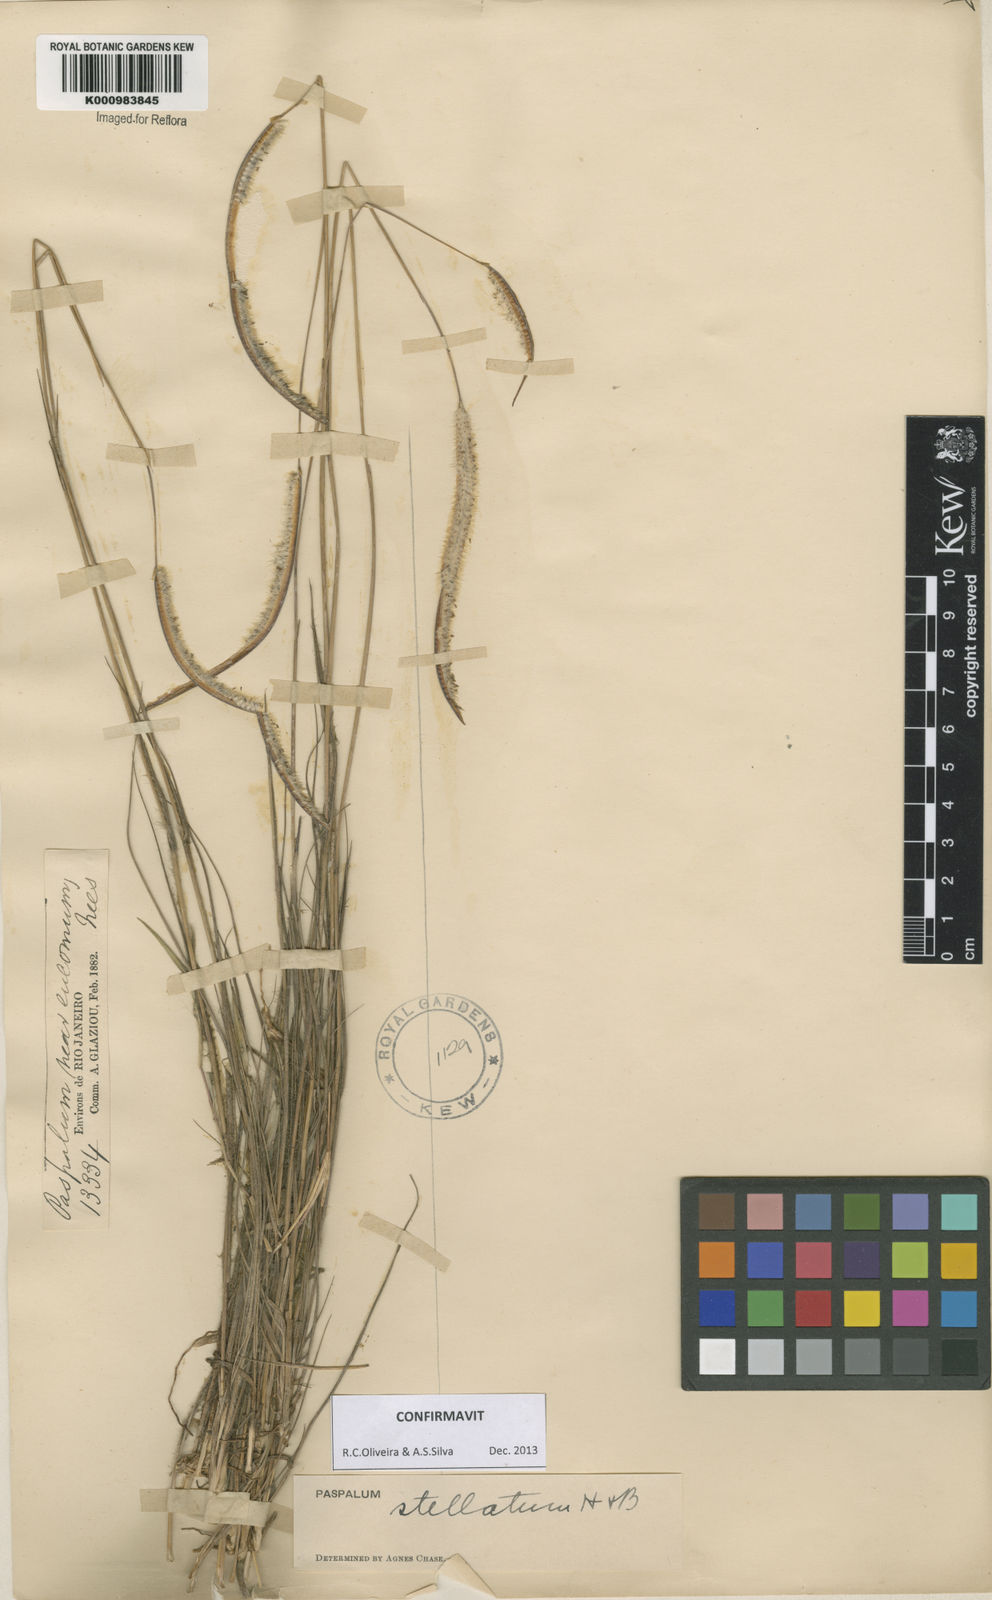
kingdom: Plantae
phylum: Tracheophyta
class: Liliopsida
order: Poales
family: Poaceae
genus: Paspalum
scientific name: Paspalum
